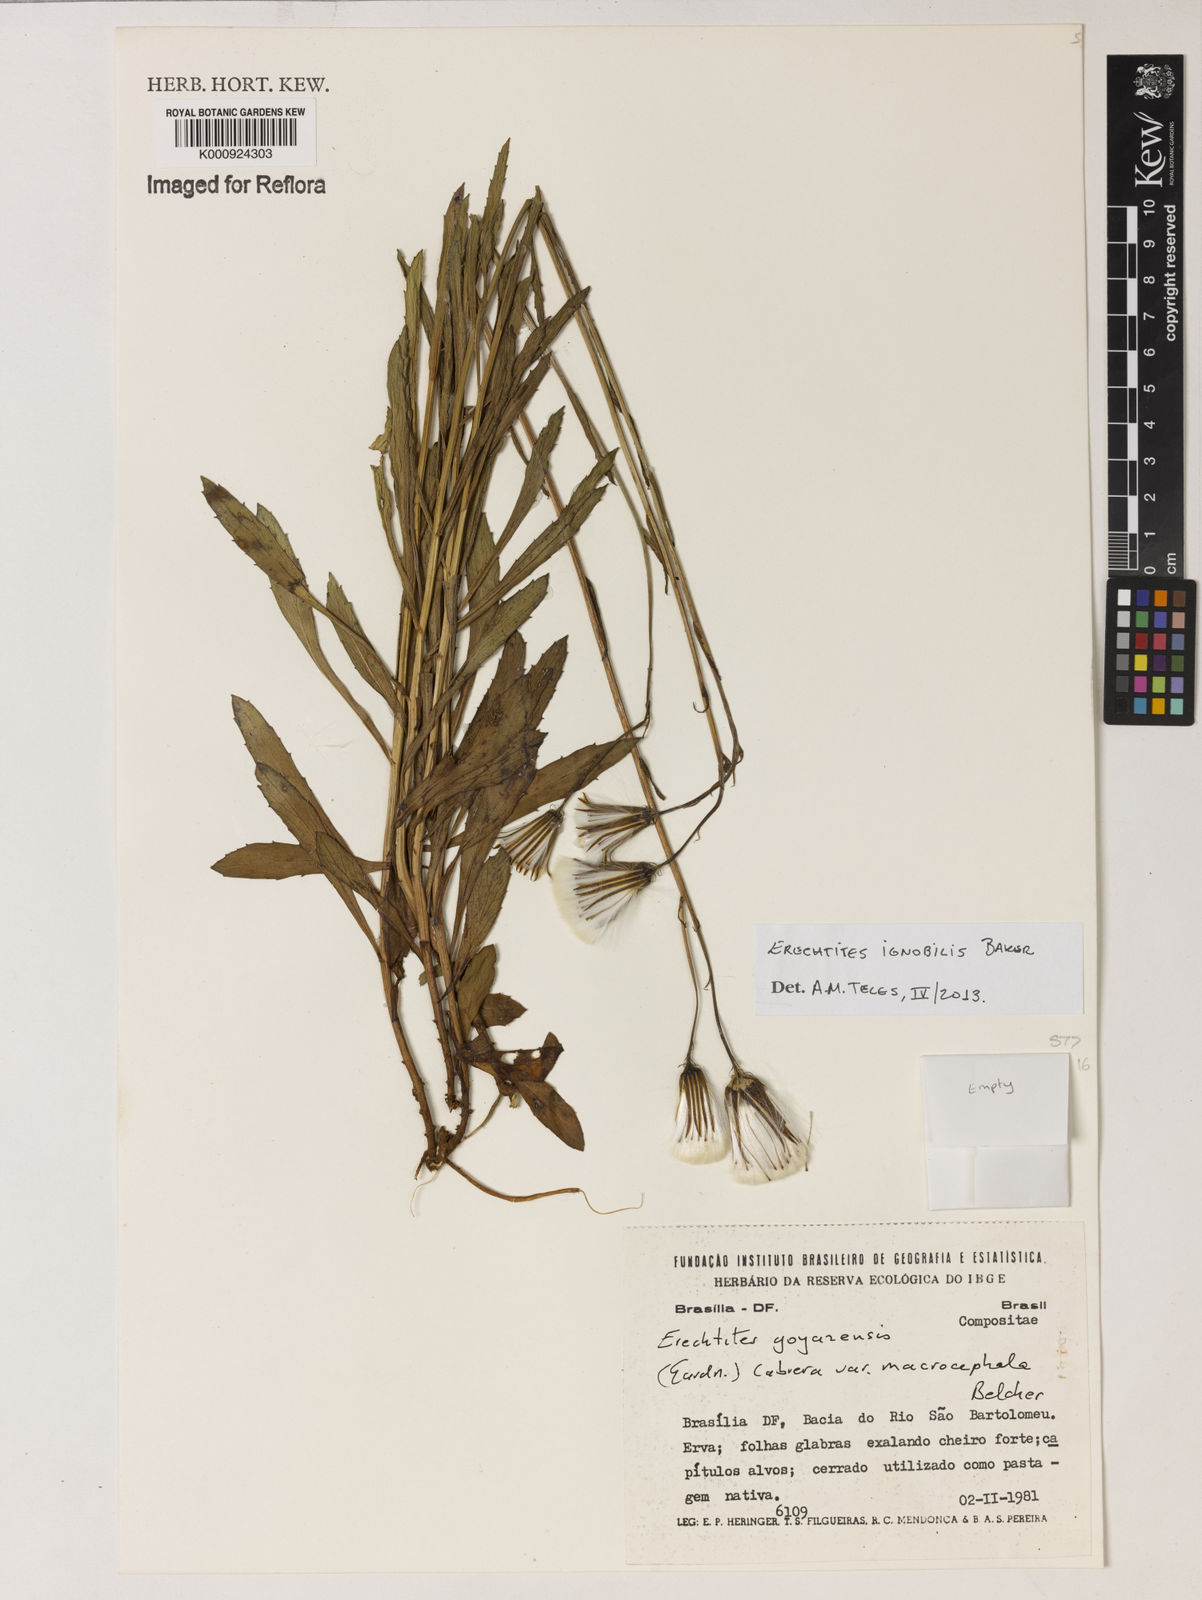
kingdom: Plantae
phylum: Tracheophyta
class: Magnoliopsida
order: Asterales
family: Asteraceae
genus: Erechtites
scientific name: Erechtites ignobilis
